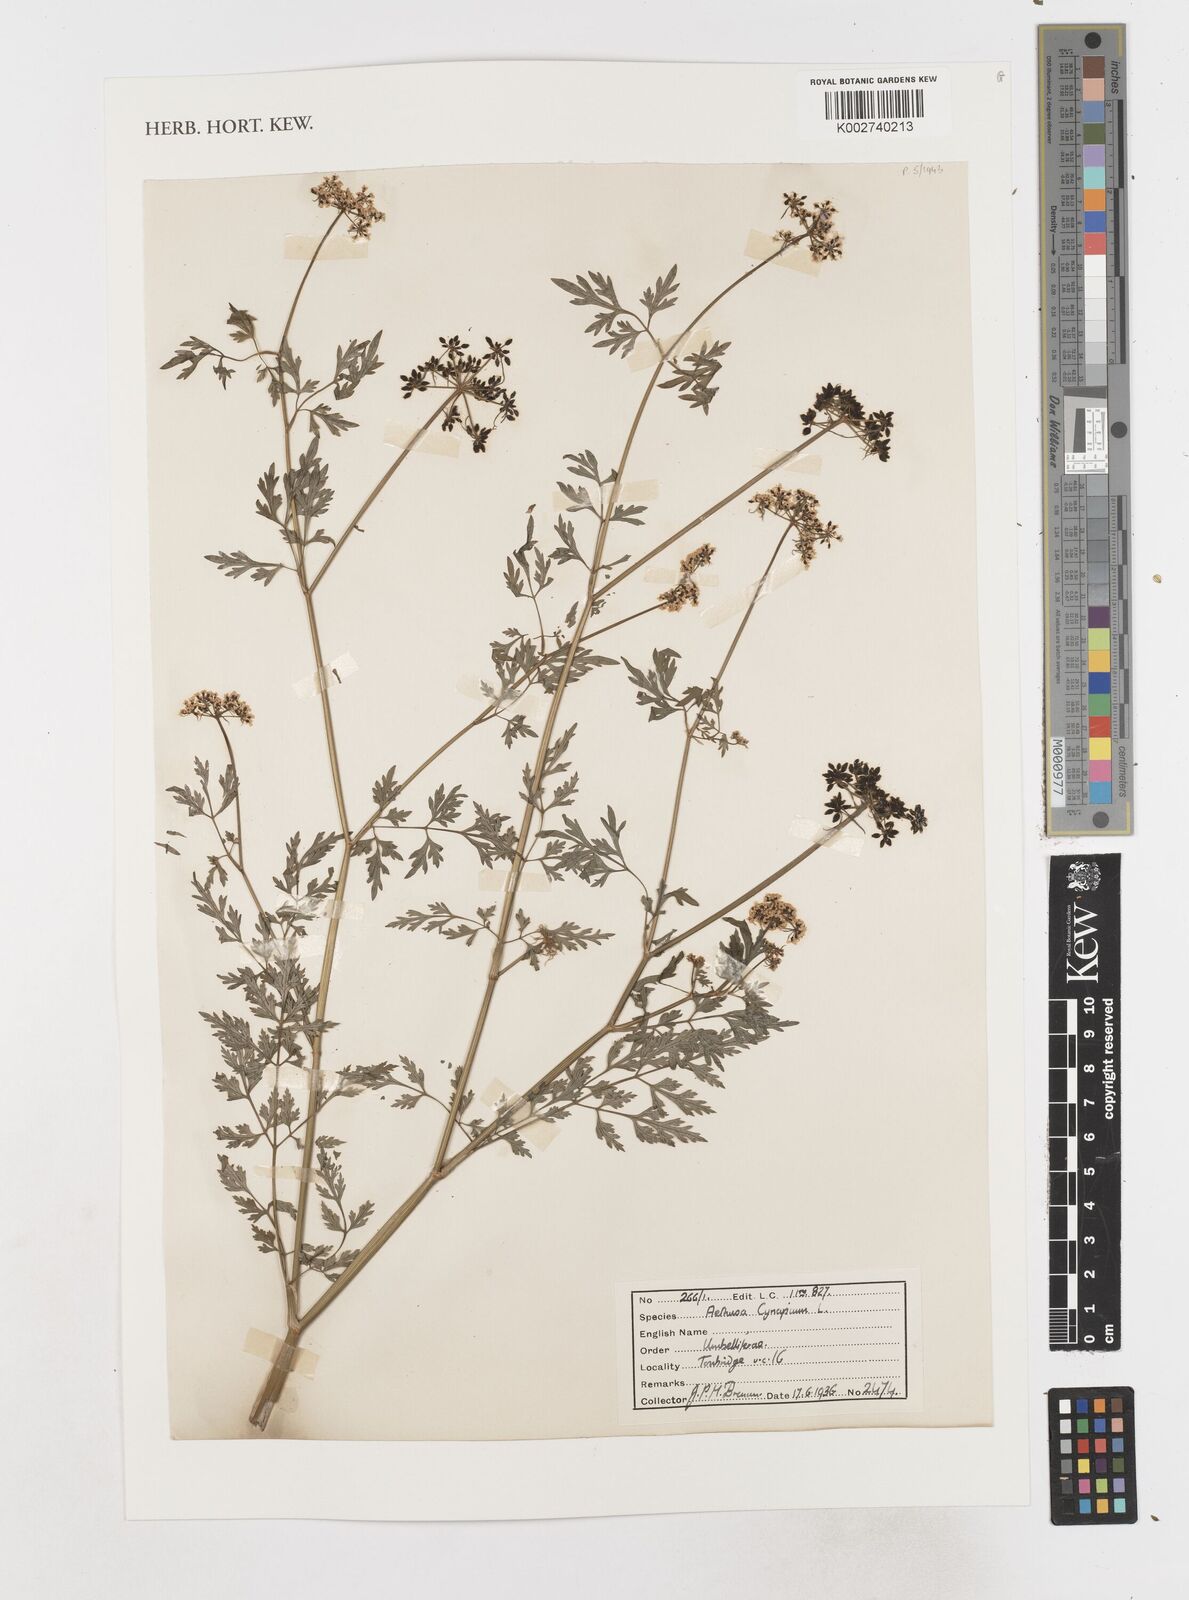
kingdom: Plantae
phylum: Tracheophyta
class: Magnoliopsida
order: Apiales
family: Apiaceae
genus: Aethusa
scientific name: Aethusa cynapium
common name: Fool's parsley
